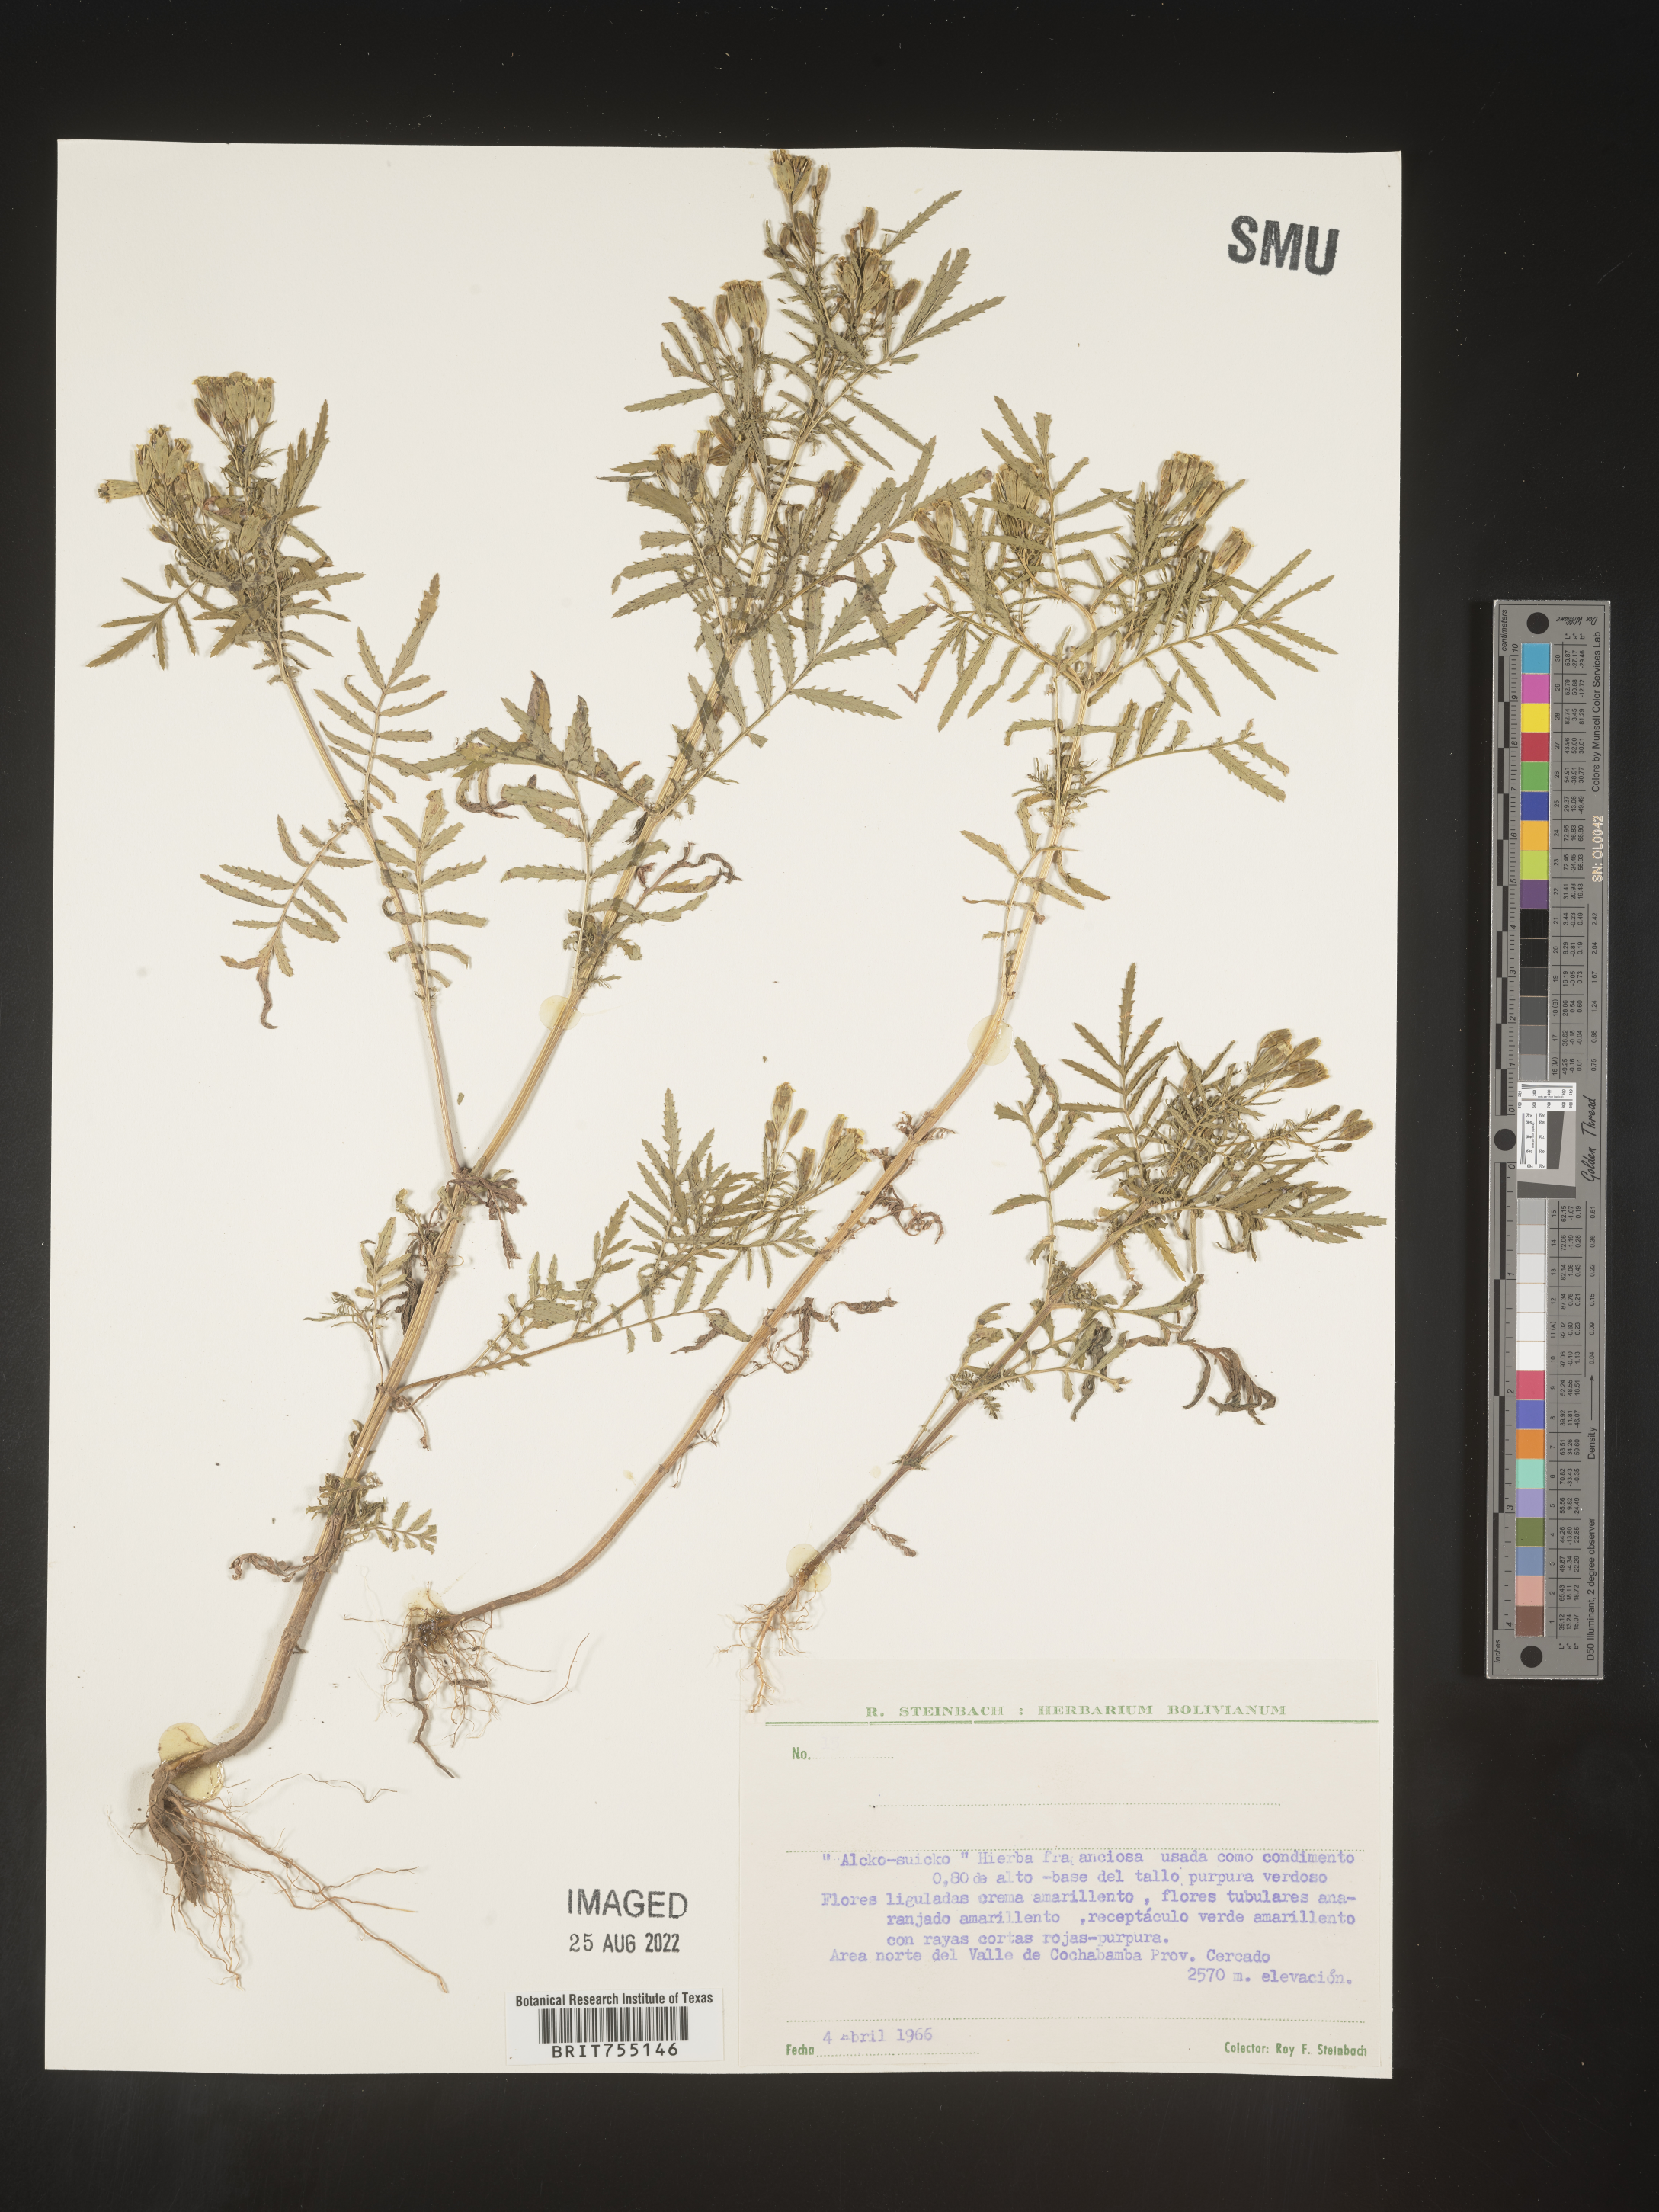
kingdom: Plantae
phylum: Tracheophyta
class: Magnoliopsida
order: Asterales
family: Asteraceae
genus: Tagetes
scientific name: Tagetes
